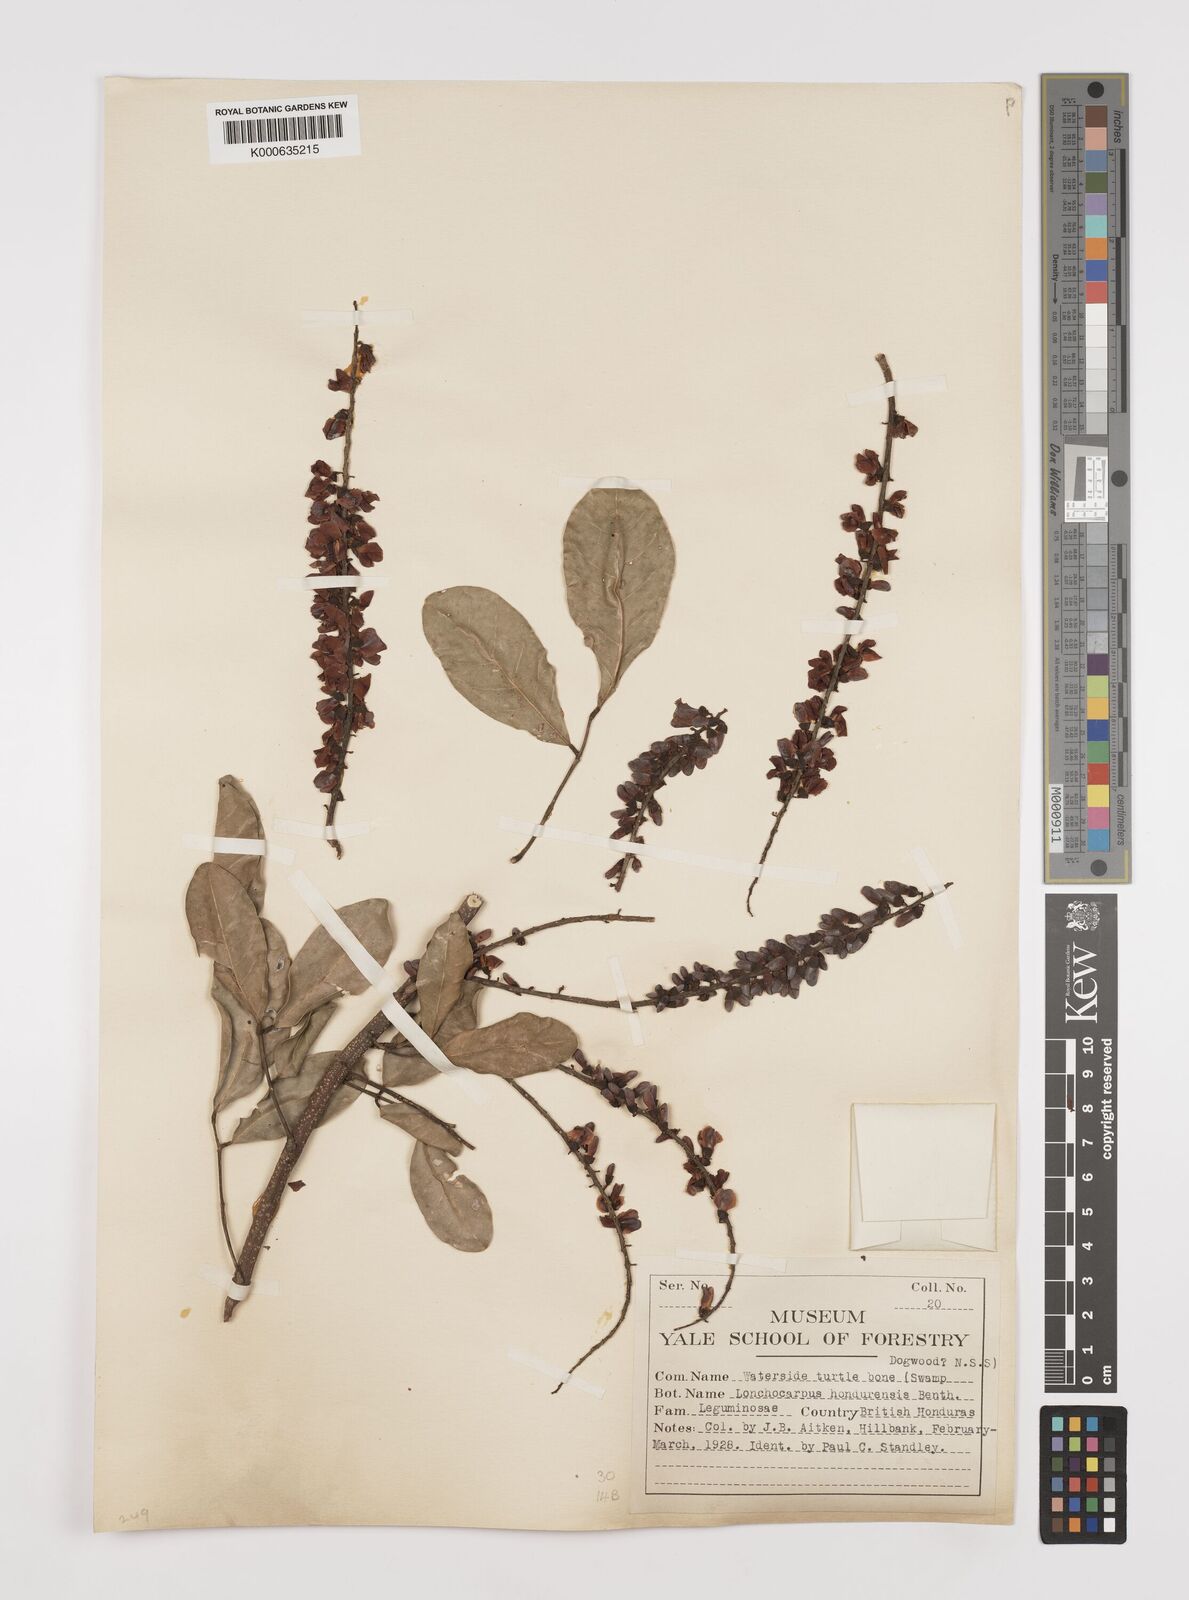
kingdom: Plantae
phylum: Tracheophyta
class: Magnoliopsida
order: Fabales
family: Fabaceae
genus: Lonchocarpus
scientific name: Lonchocarpus hondurensis
